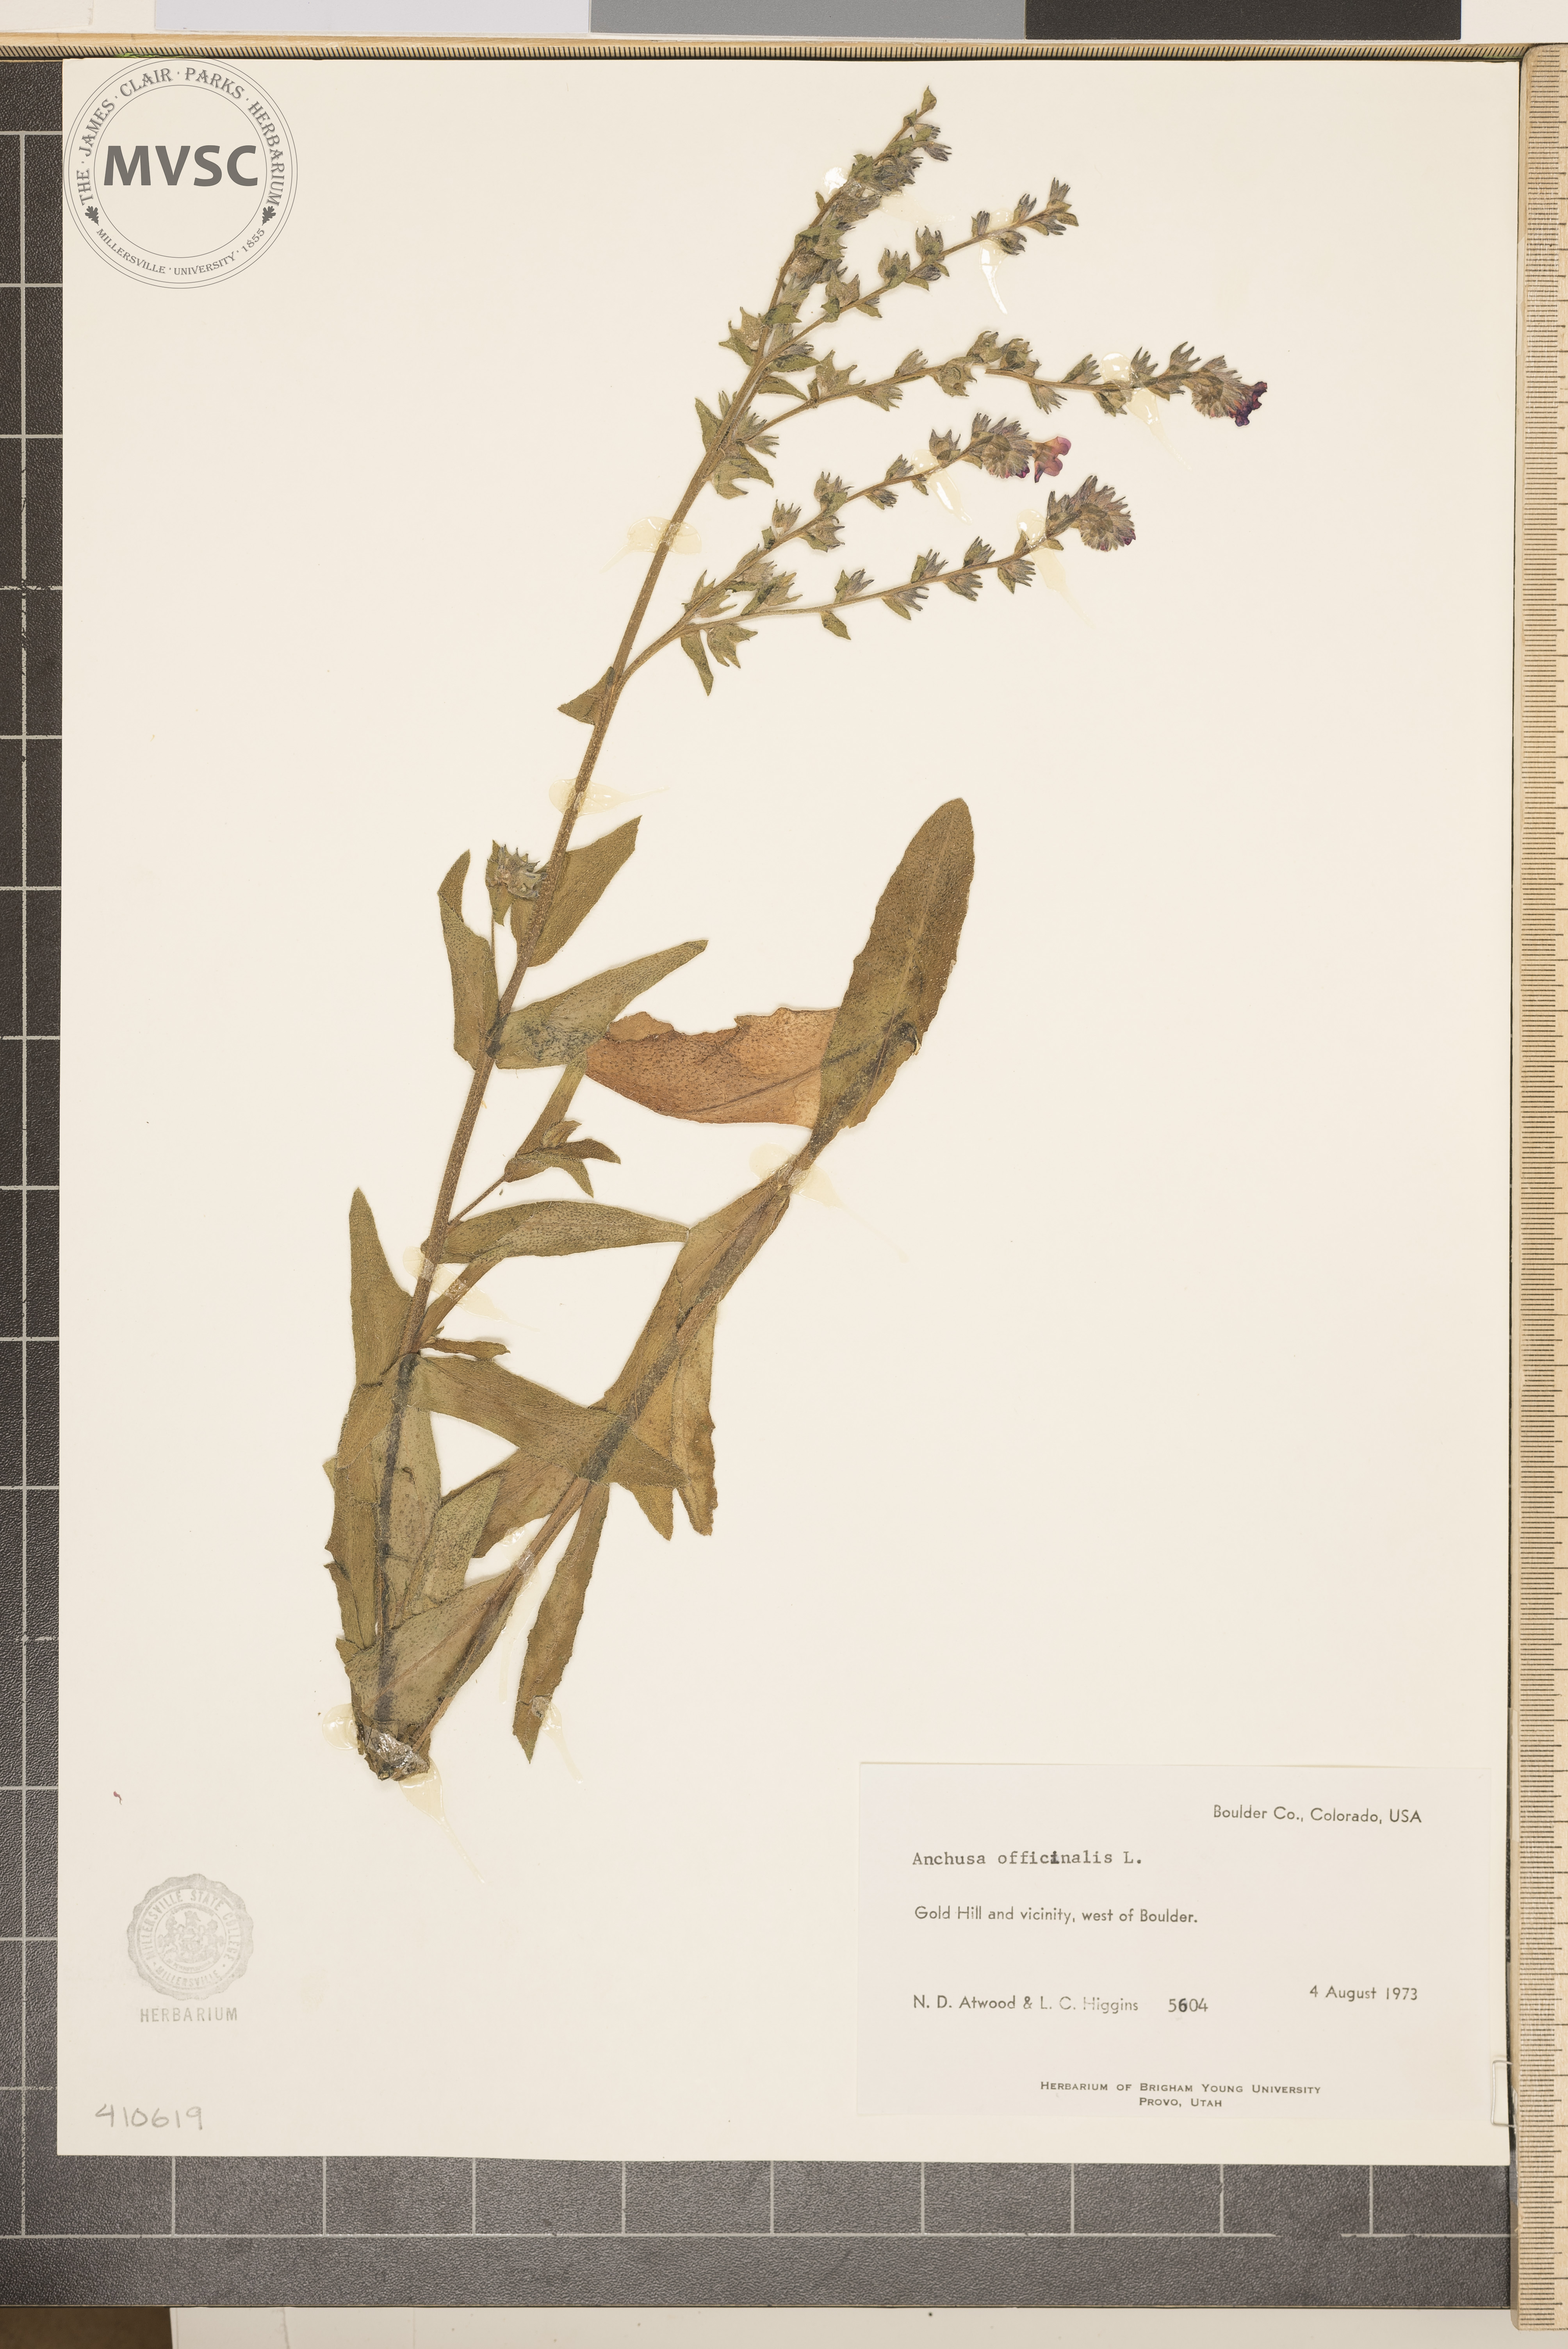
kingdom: Plantae
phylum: Tracheophyta
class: Magnoliopsida
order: Boraginales
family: Boraginaceae
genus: Anchusa
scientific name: Anchusa officinalis
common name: Alkanet
